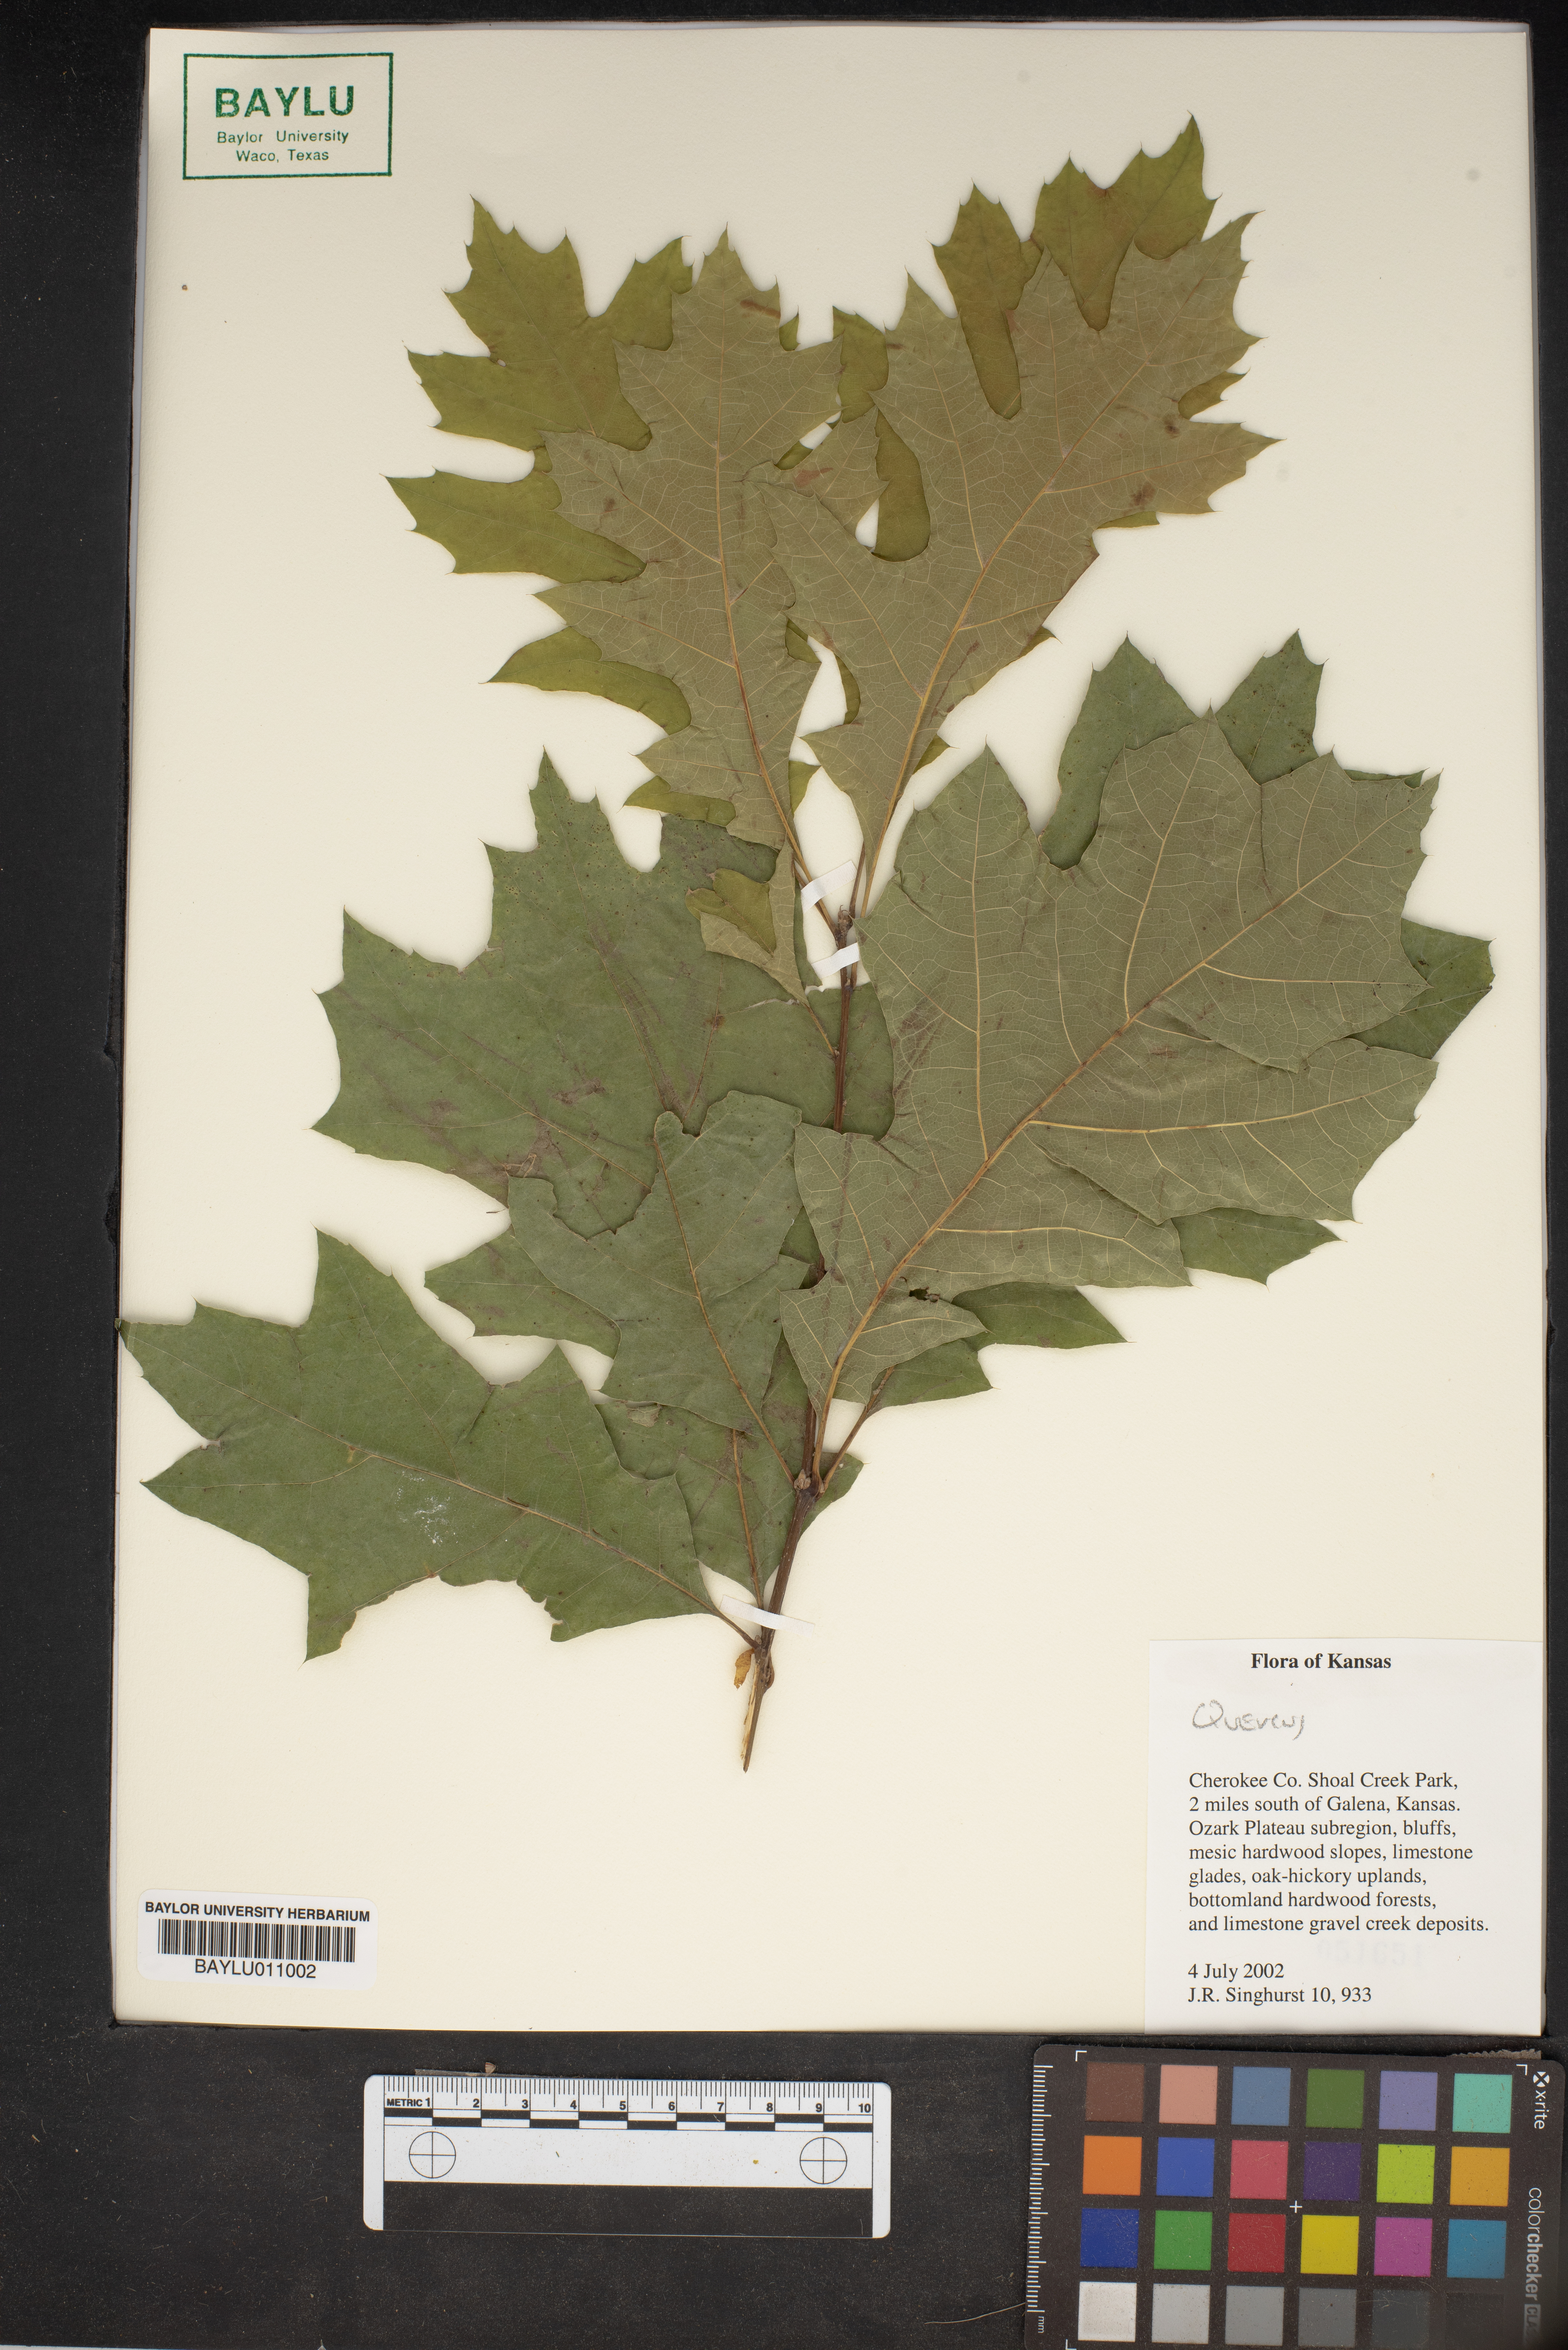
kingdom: Plantae
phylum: Tracheophyta
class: Magnoliopsida
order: Fagales
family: Fagaceae
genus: Quercus
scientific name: Quercus
